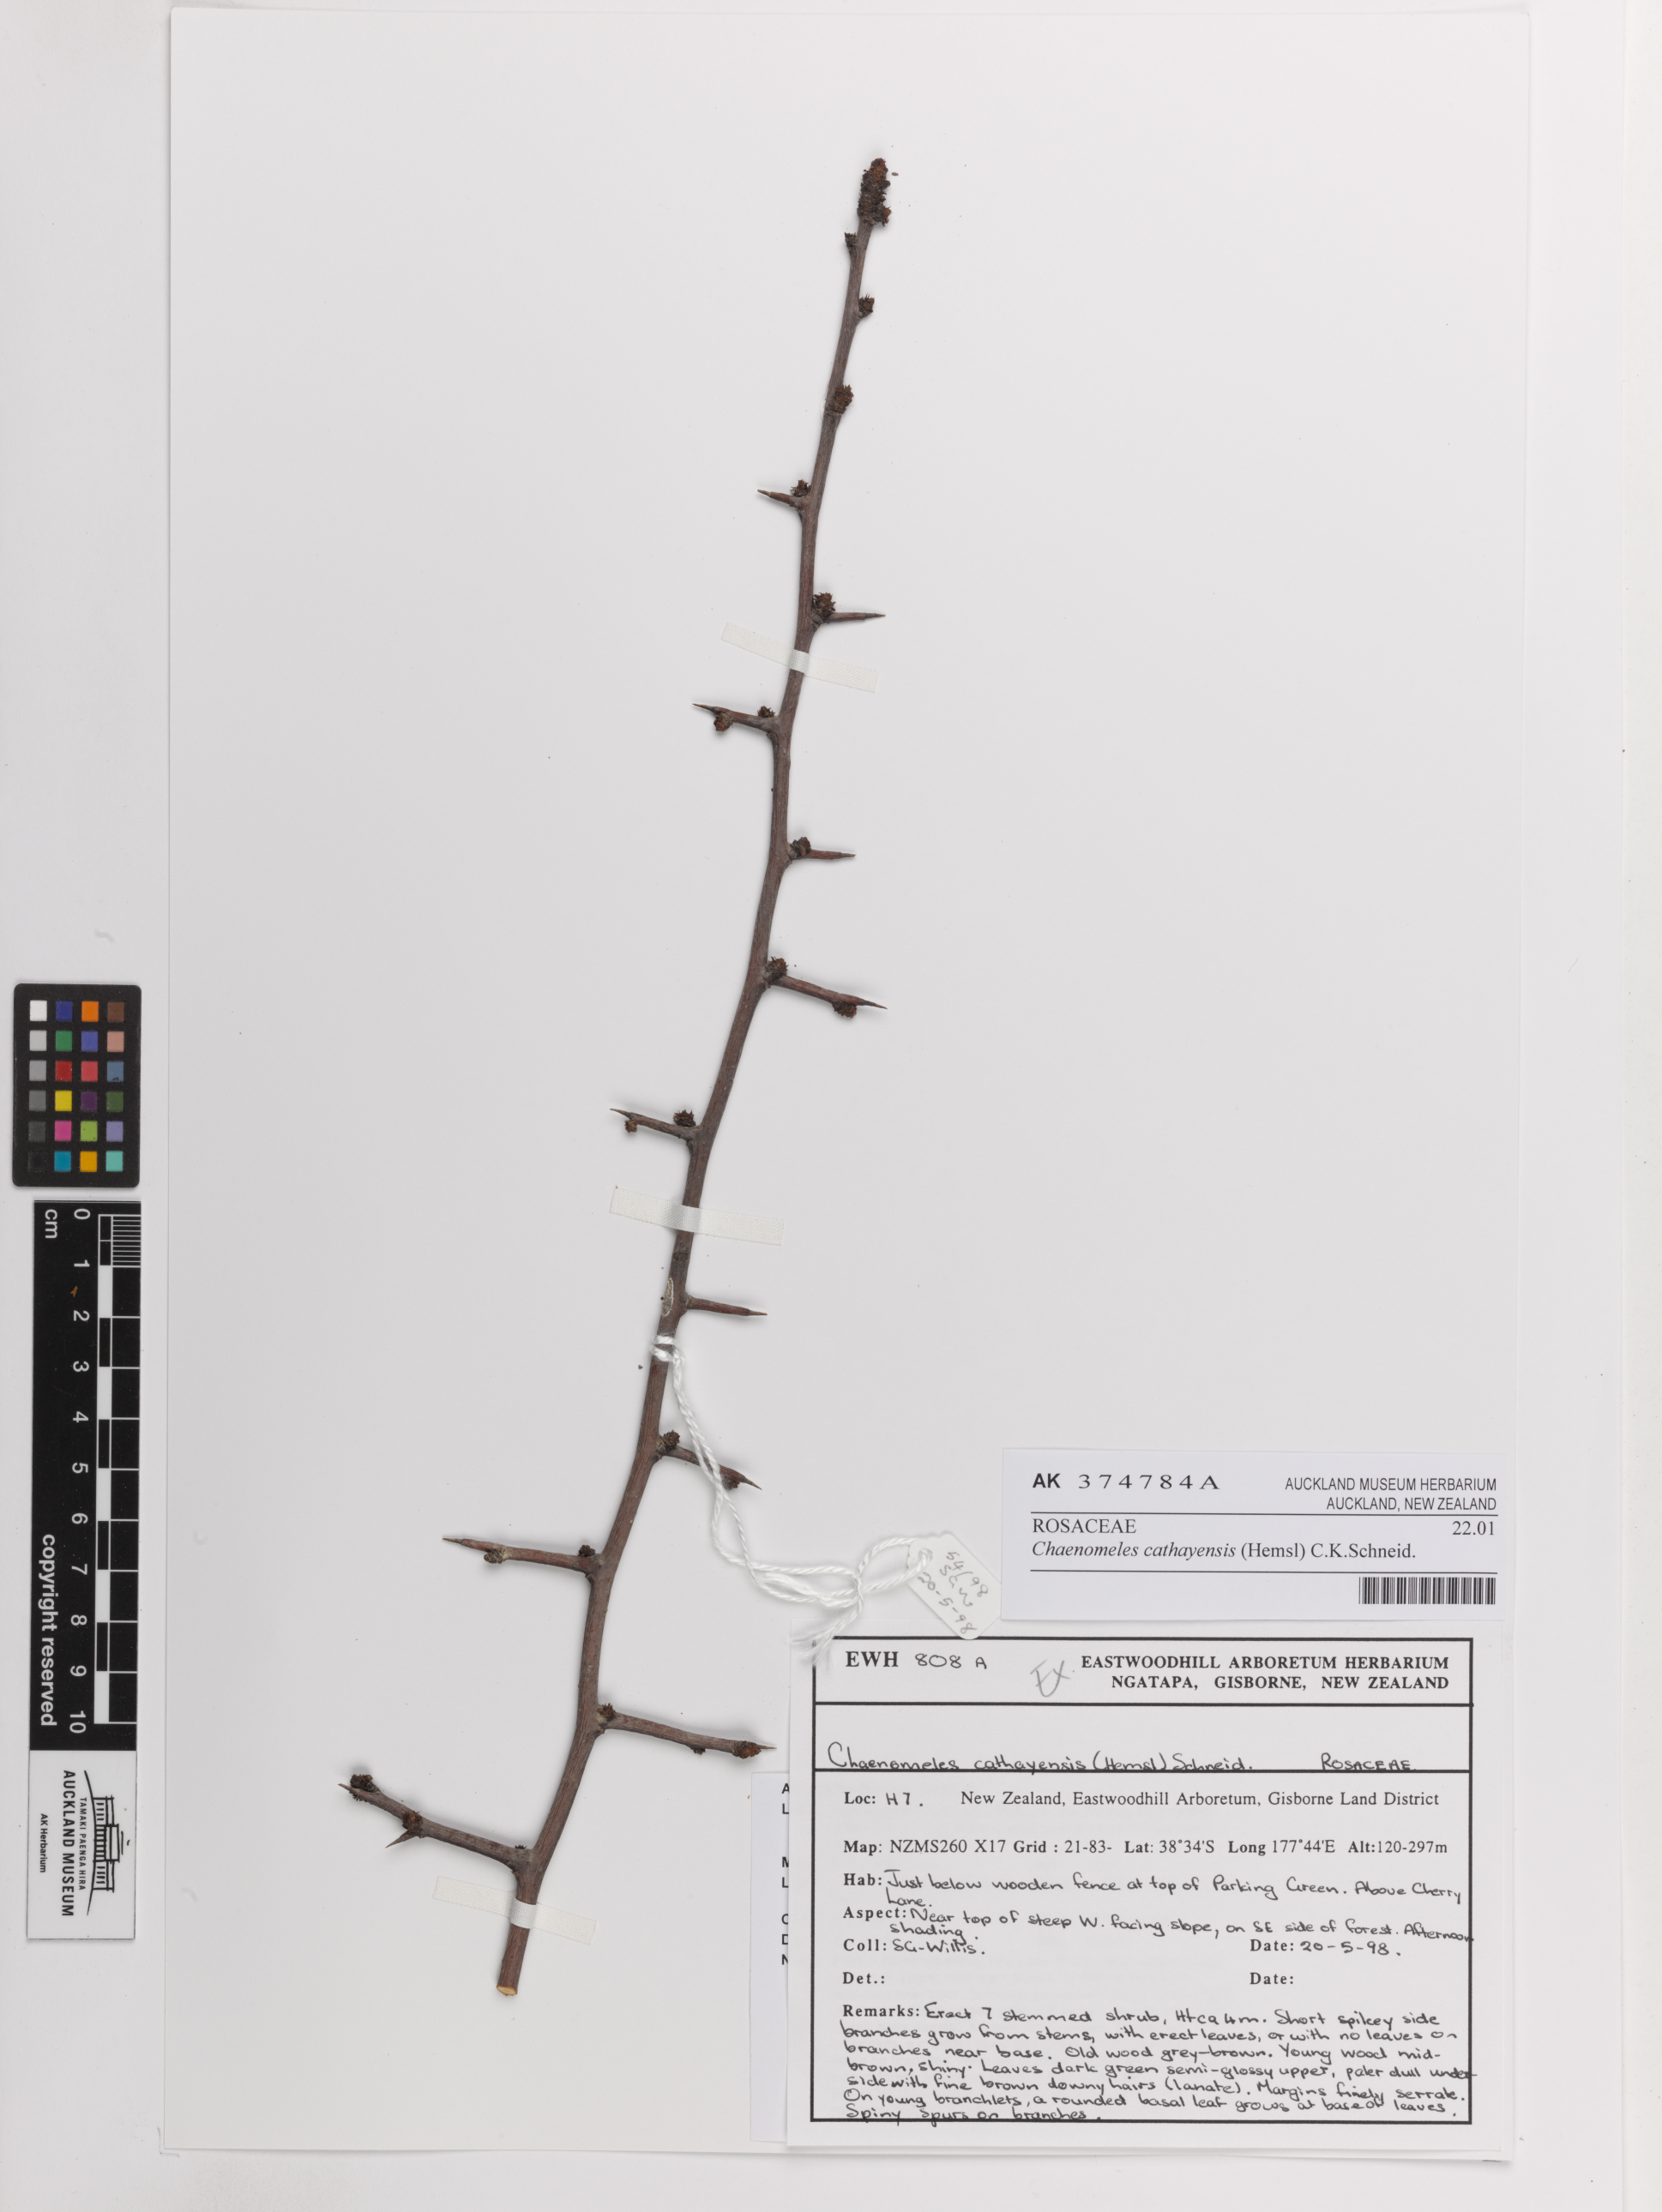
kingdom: Plantae
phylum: Tracheophyta
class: Magnoliopsida
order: Rosales
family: Rosaceae
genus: Chaenomeles
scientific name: Chaenomeles cathayensis
